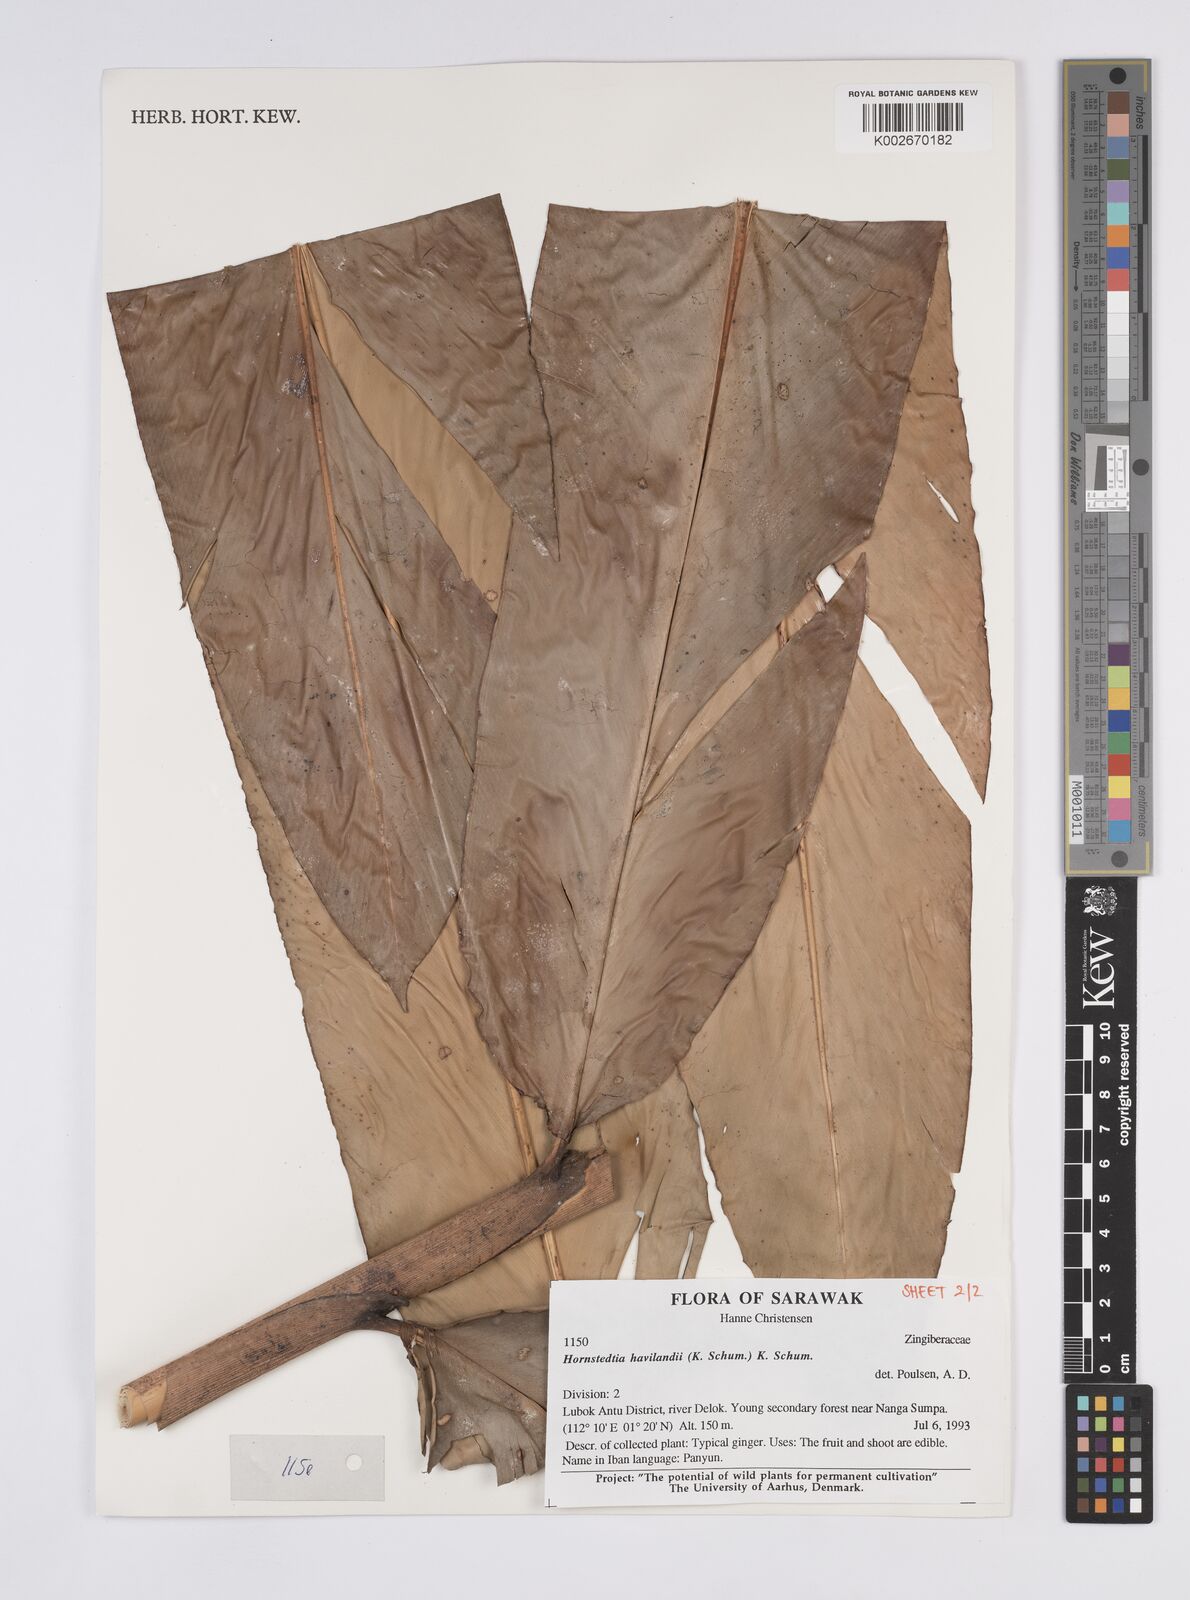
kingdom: Plantae
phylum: Tracheophyta
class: Liliopsida
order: Zingiberales
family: Zingiberaceae
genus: Hornstedtia
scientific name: Hornstedtia havilandii
